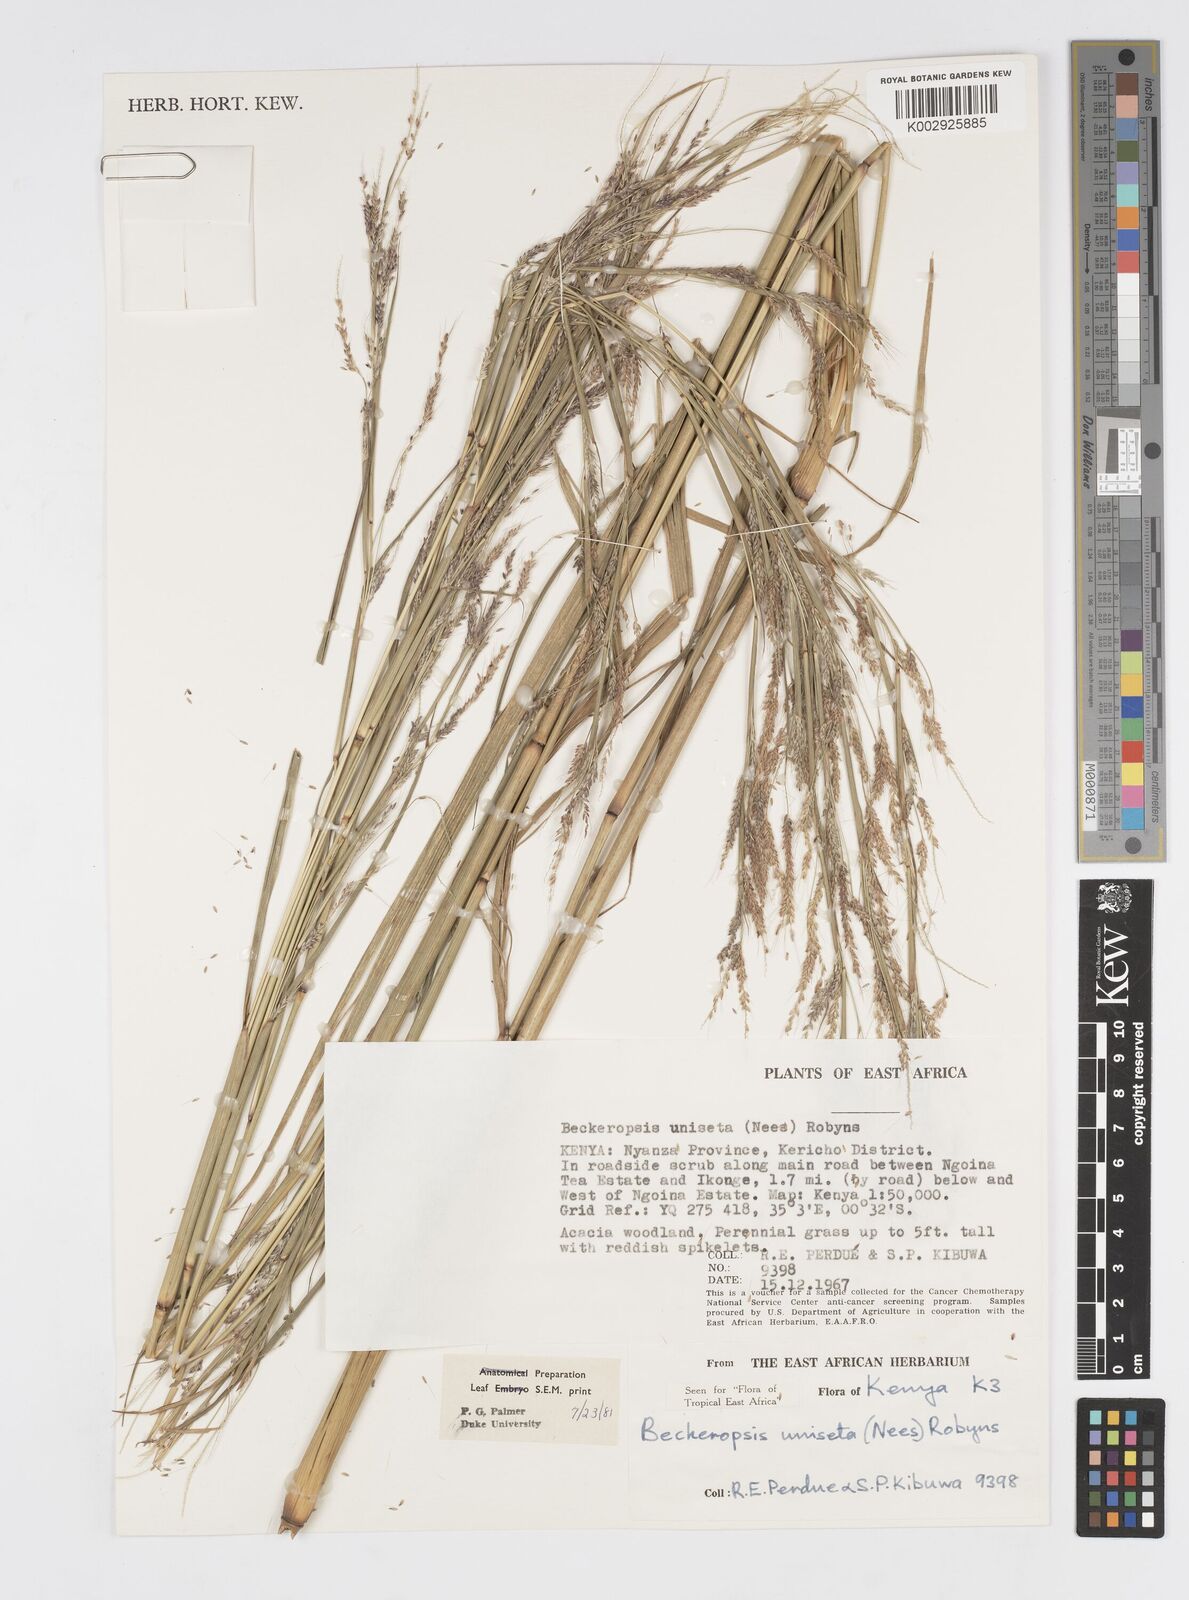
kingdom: Plantae
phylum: Tracheophyta
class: Liliopsida
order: Poales
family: Poaceae
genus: Cenchrus
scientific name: Cenchrus Pennisetum spec
